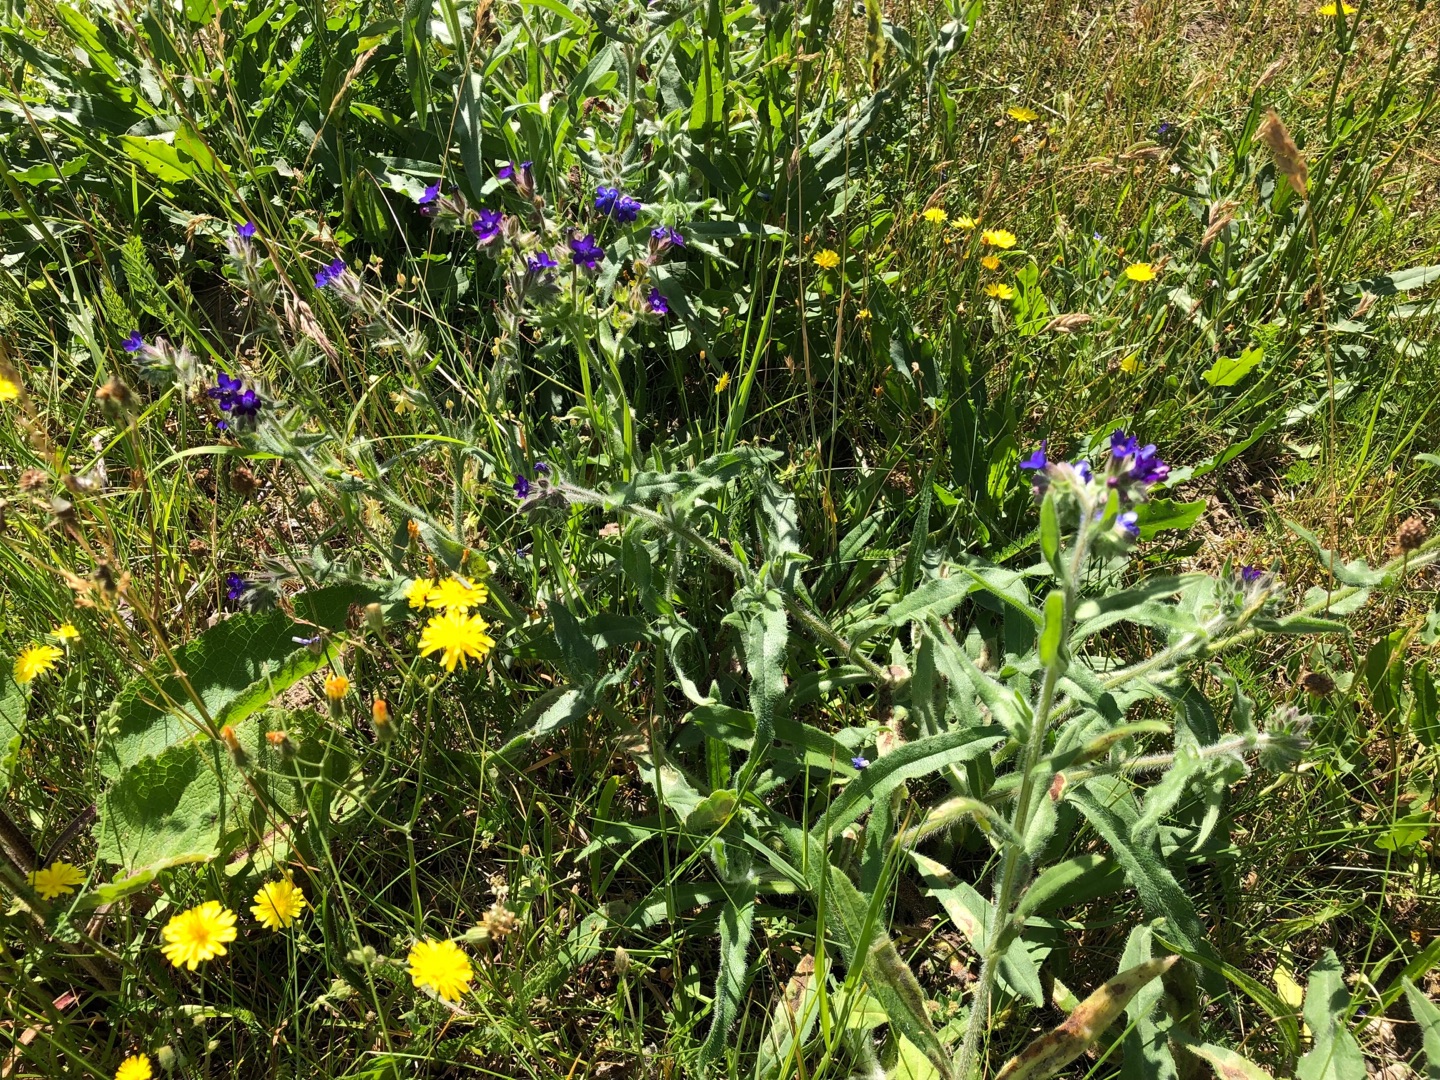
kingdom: Plantae
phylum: Tracheophyta
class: Magnoliopsida
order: Boraginales
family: Boraginaceae
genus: Anchusa
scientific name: Anchusa officinalis
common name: Læge-oksetunge
